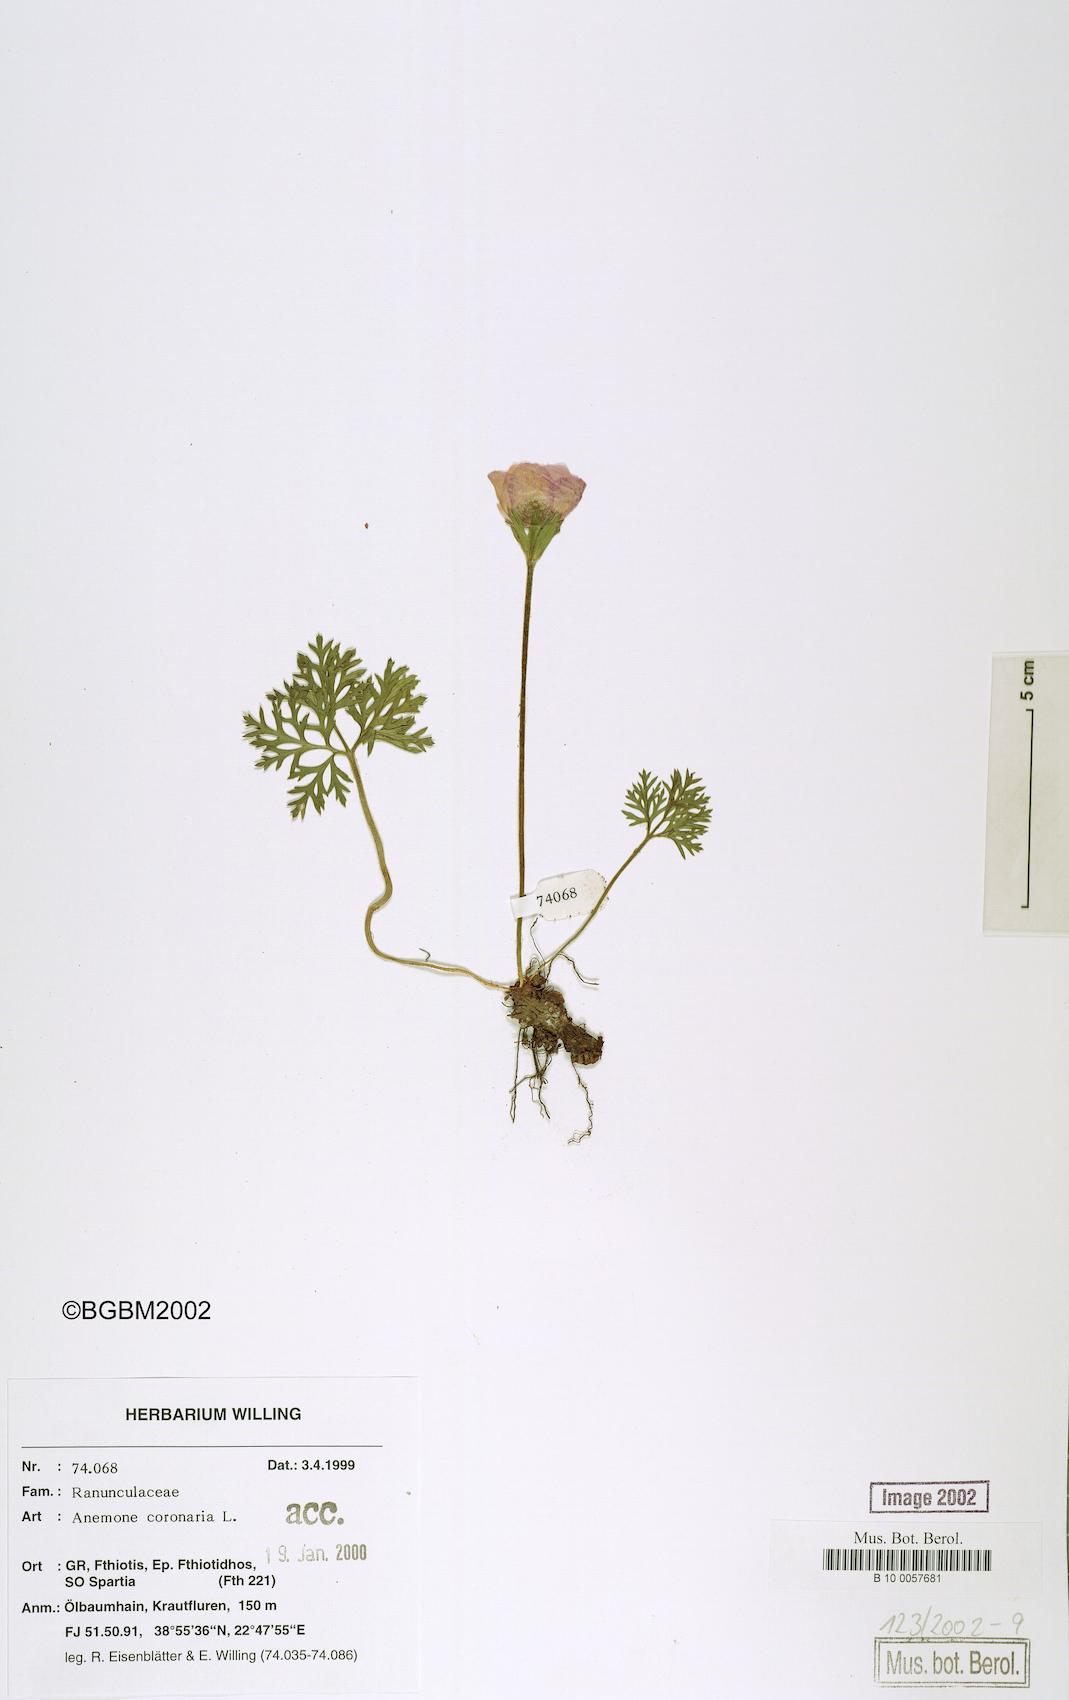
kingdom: Plantae
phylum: Tracheophyta
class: Magnoliopsida
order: Ranunculales
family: Ranunculaceae
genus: Anemone
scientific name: Anemone coronaria
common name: Poppy anemone
